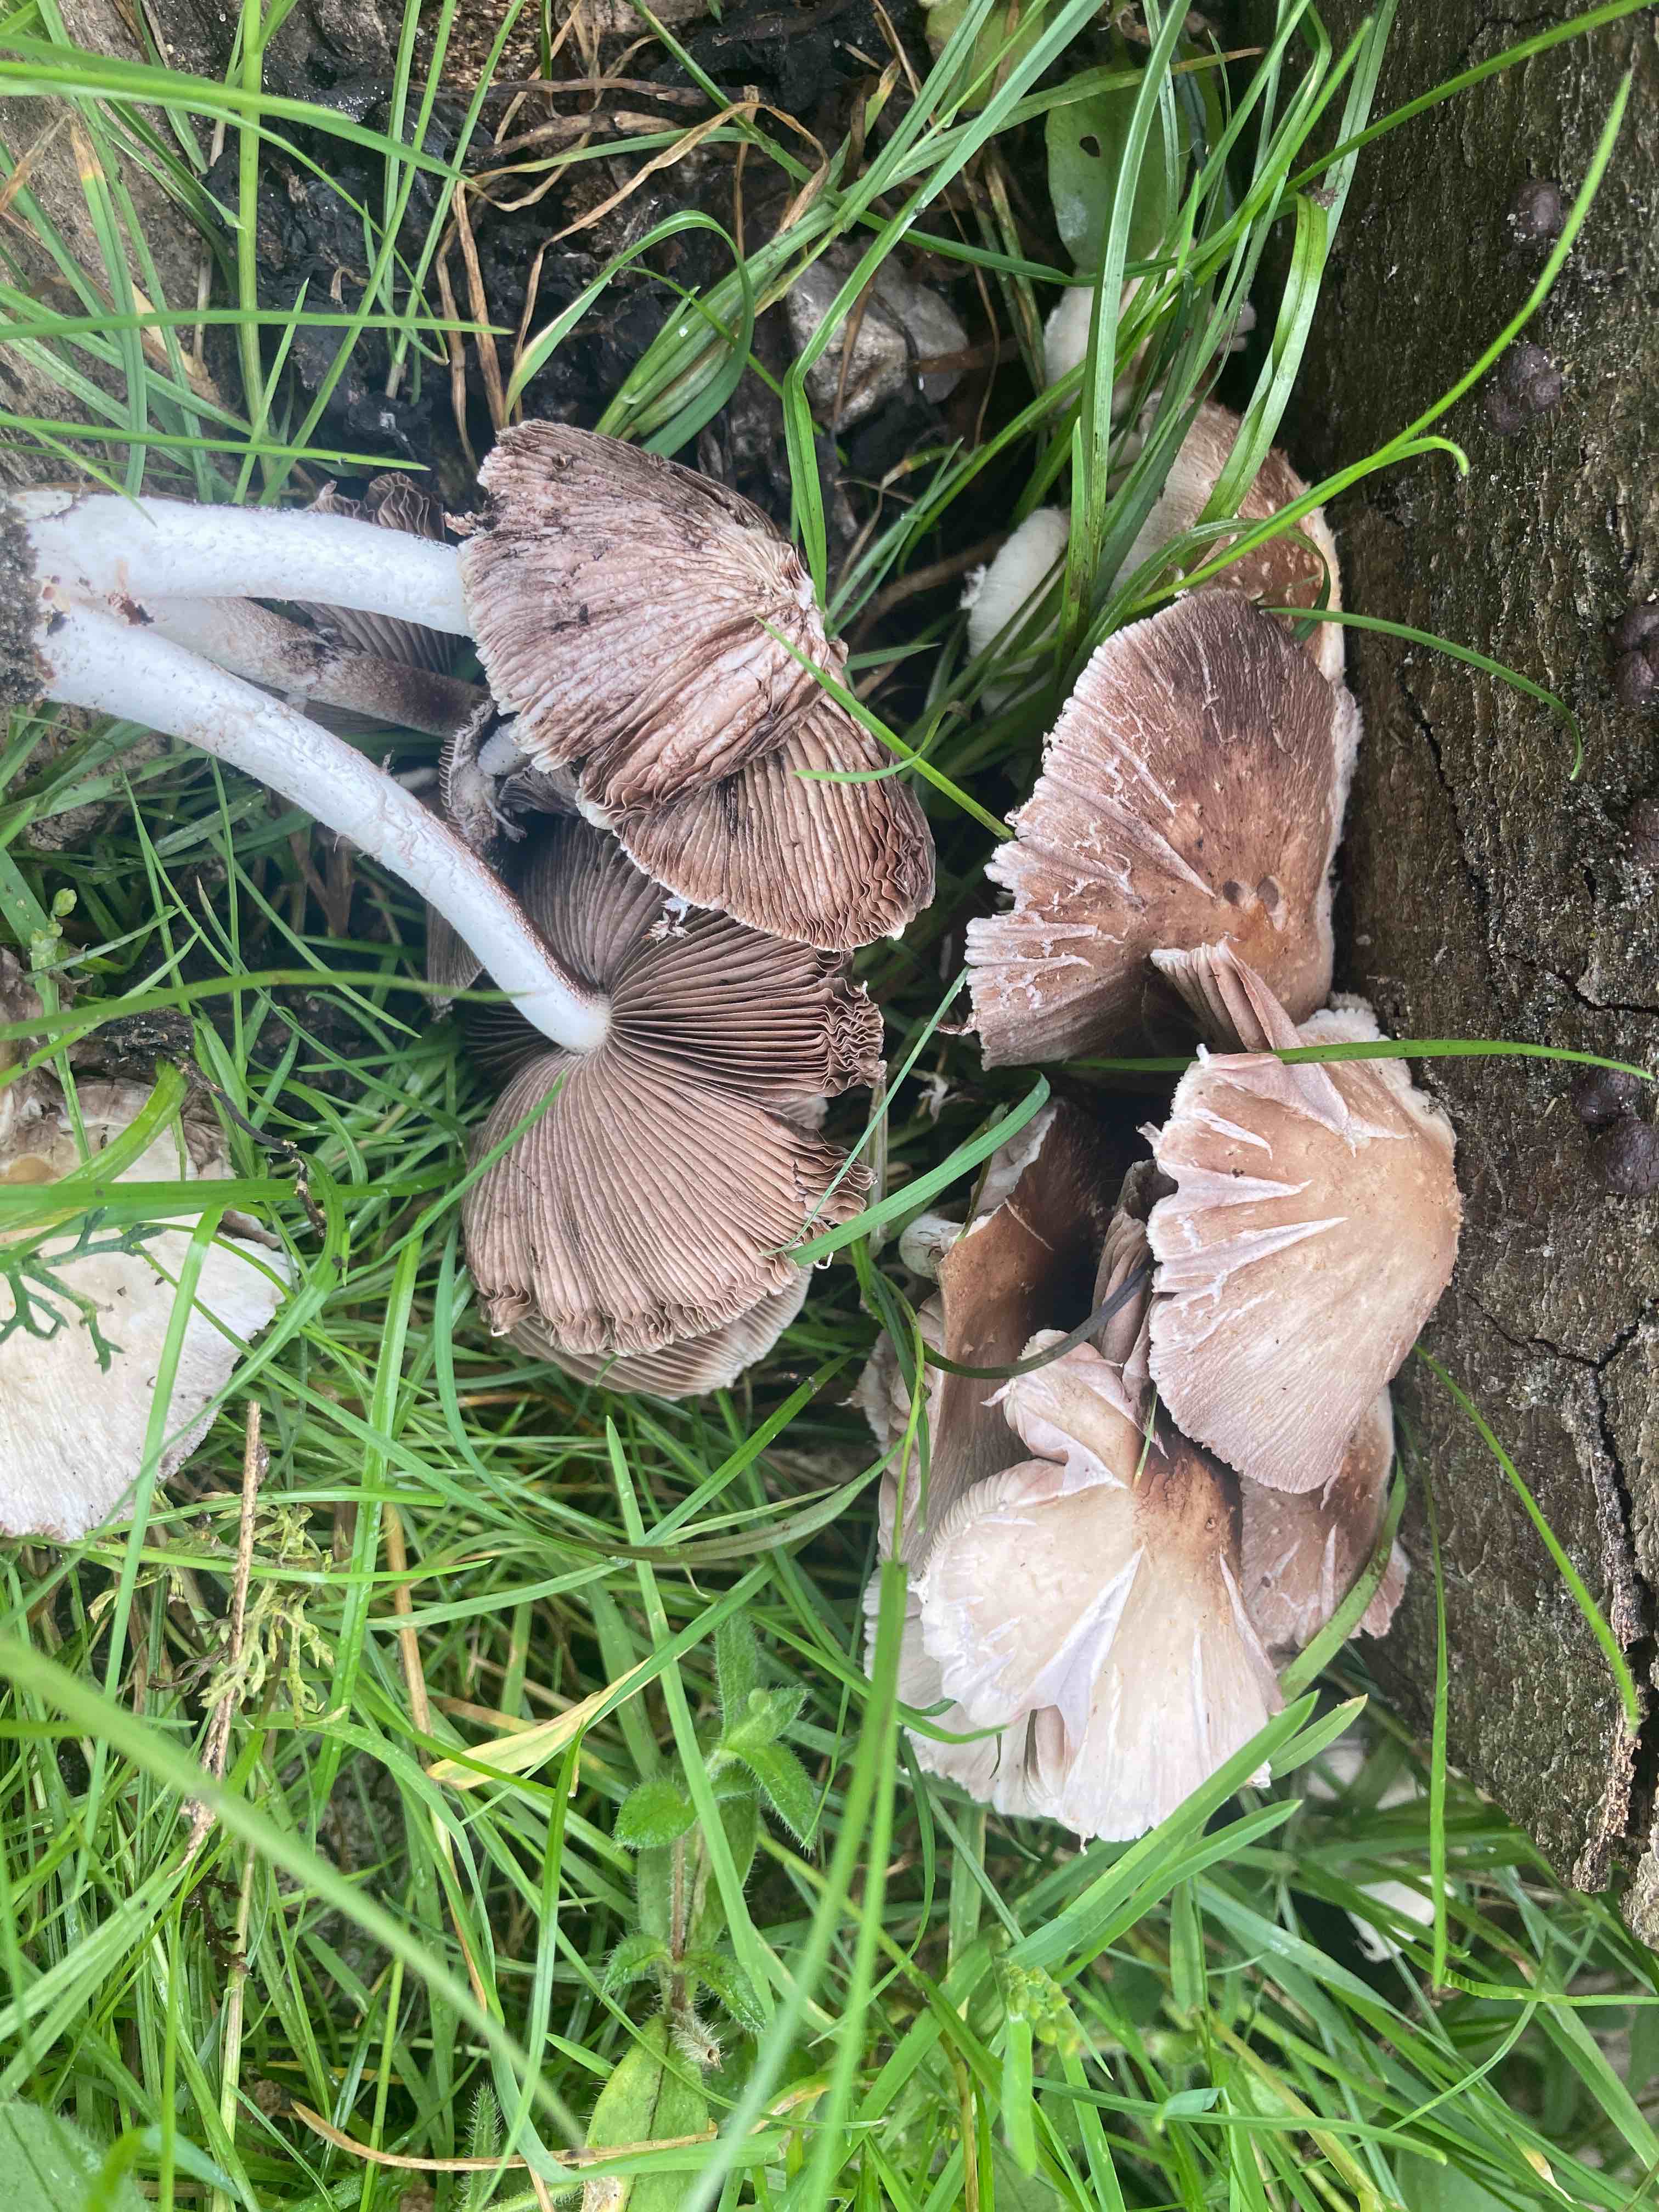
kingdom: Fungi
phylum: Basidiomycota
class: Agaricomycetes
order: Agaricales
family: Psathyrellaceae
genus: Candolleomyces
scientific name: Candolleomyces candolleanus
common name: Candolles mørkhat
